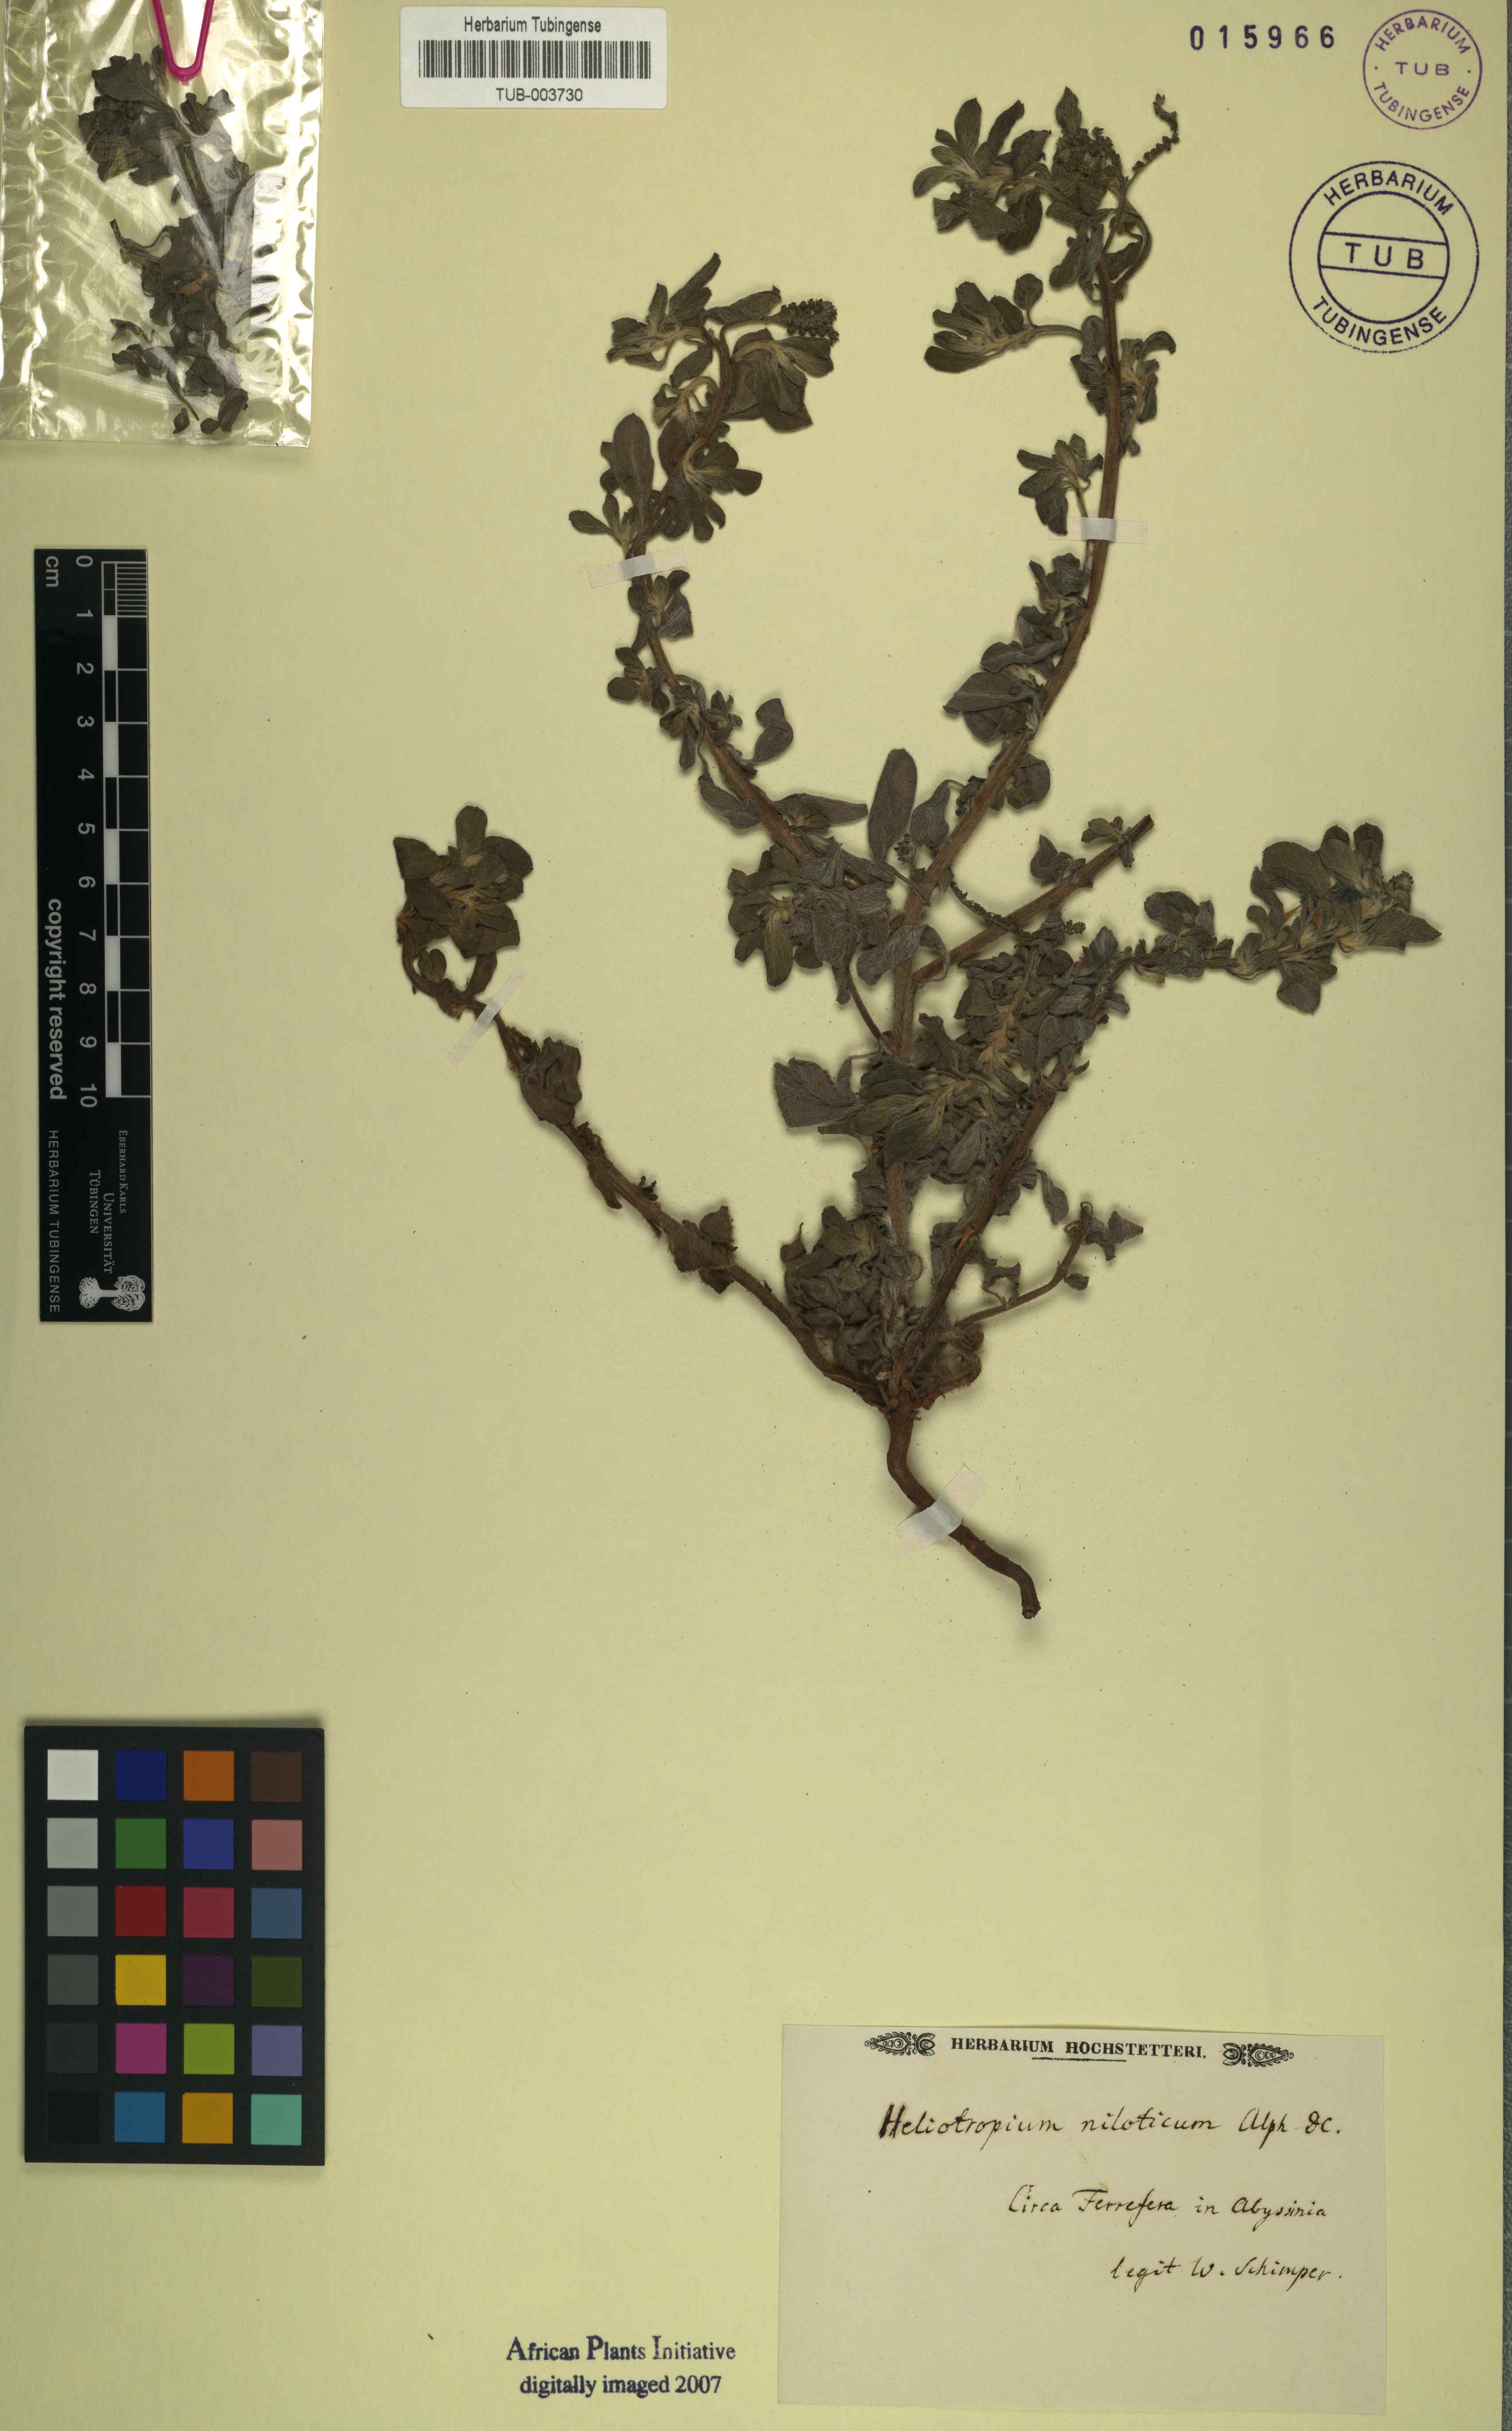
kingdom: Plantae
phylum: Tracheophyta
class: Magnoliopsida
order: Boraginales
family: Heliotropiaceae
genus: Euploca
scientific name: Euploca ovalifolia
